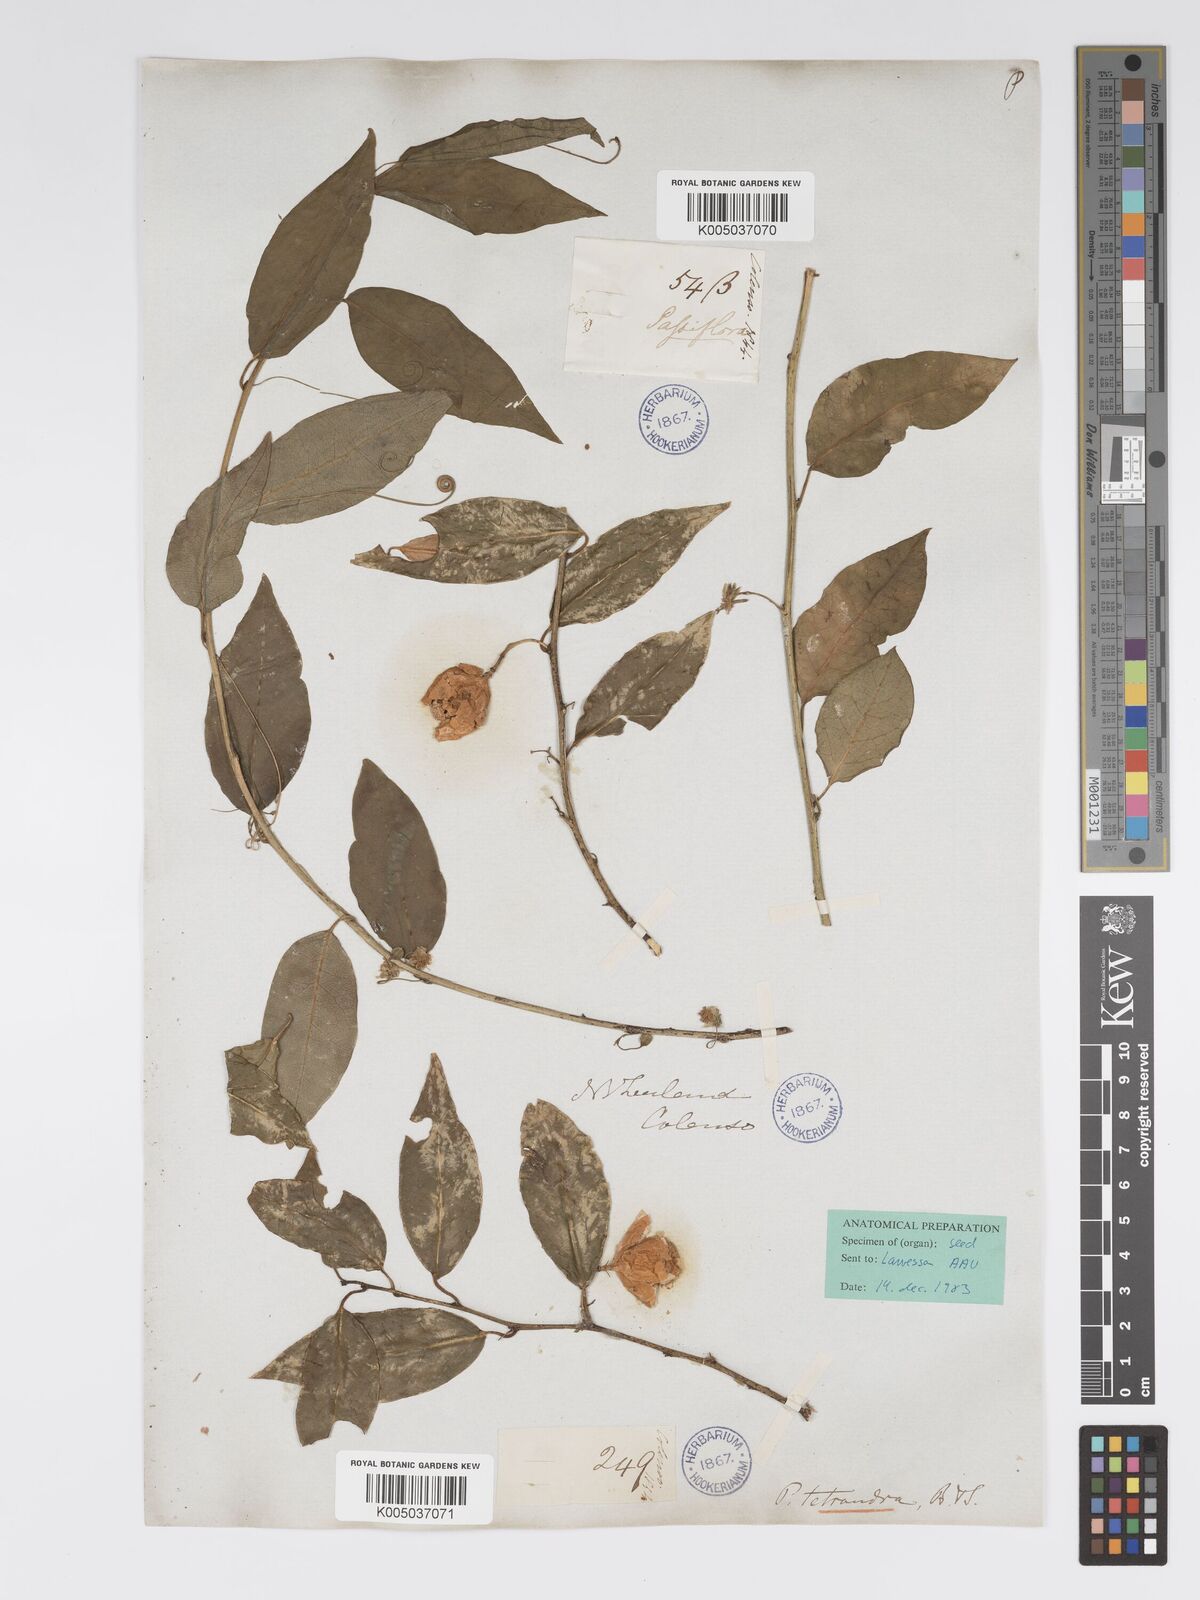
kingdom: Plantae
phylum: Tracheophyta
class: Magnoliopsida
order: Malpighiales
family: Passifloraceae
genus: Passiflora
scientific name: Passiflora tetrandra
